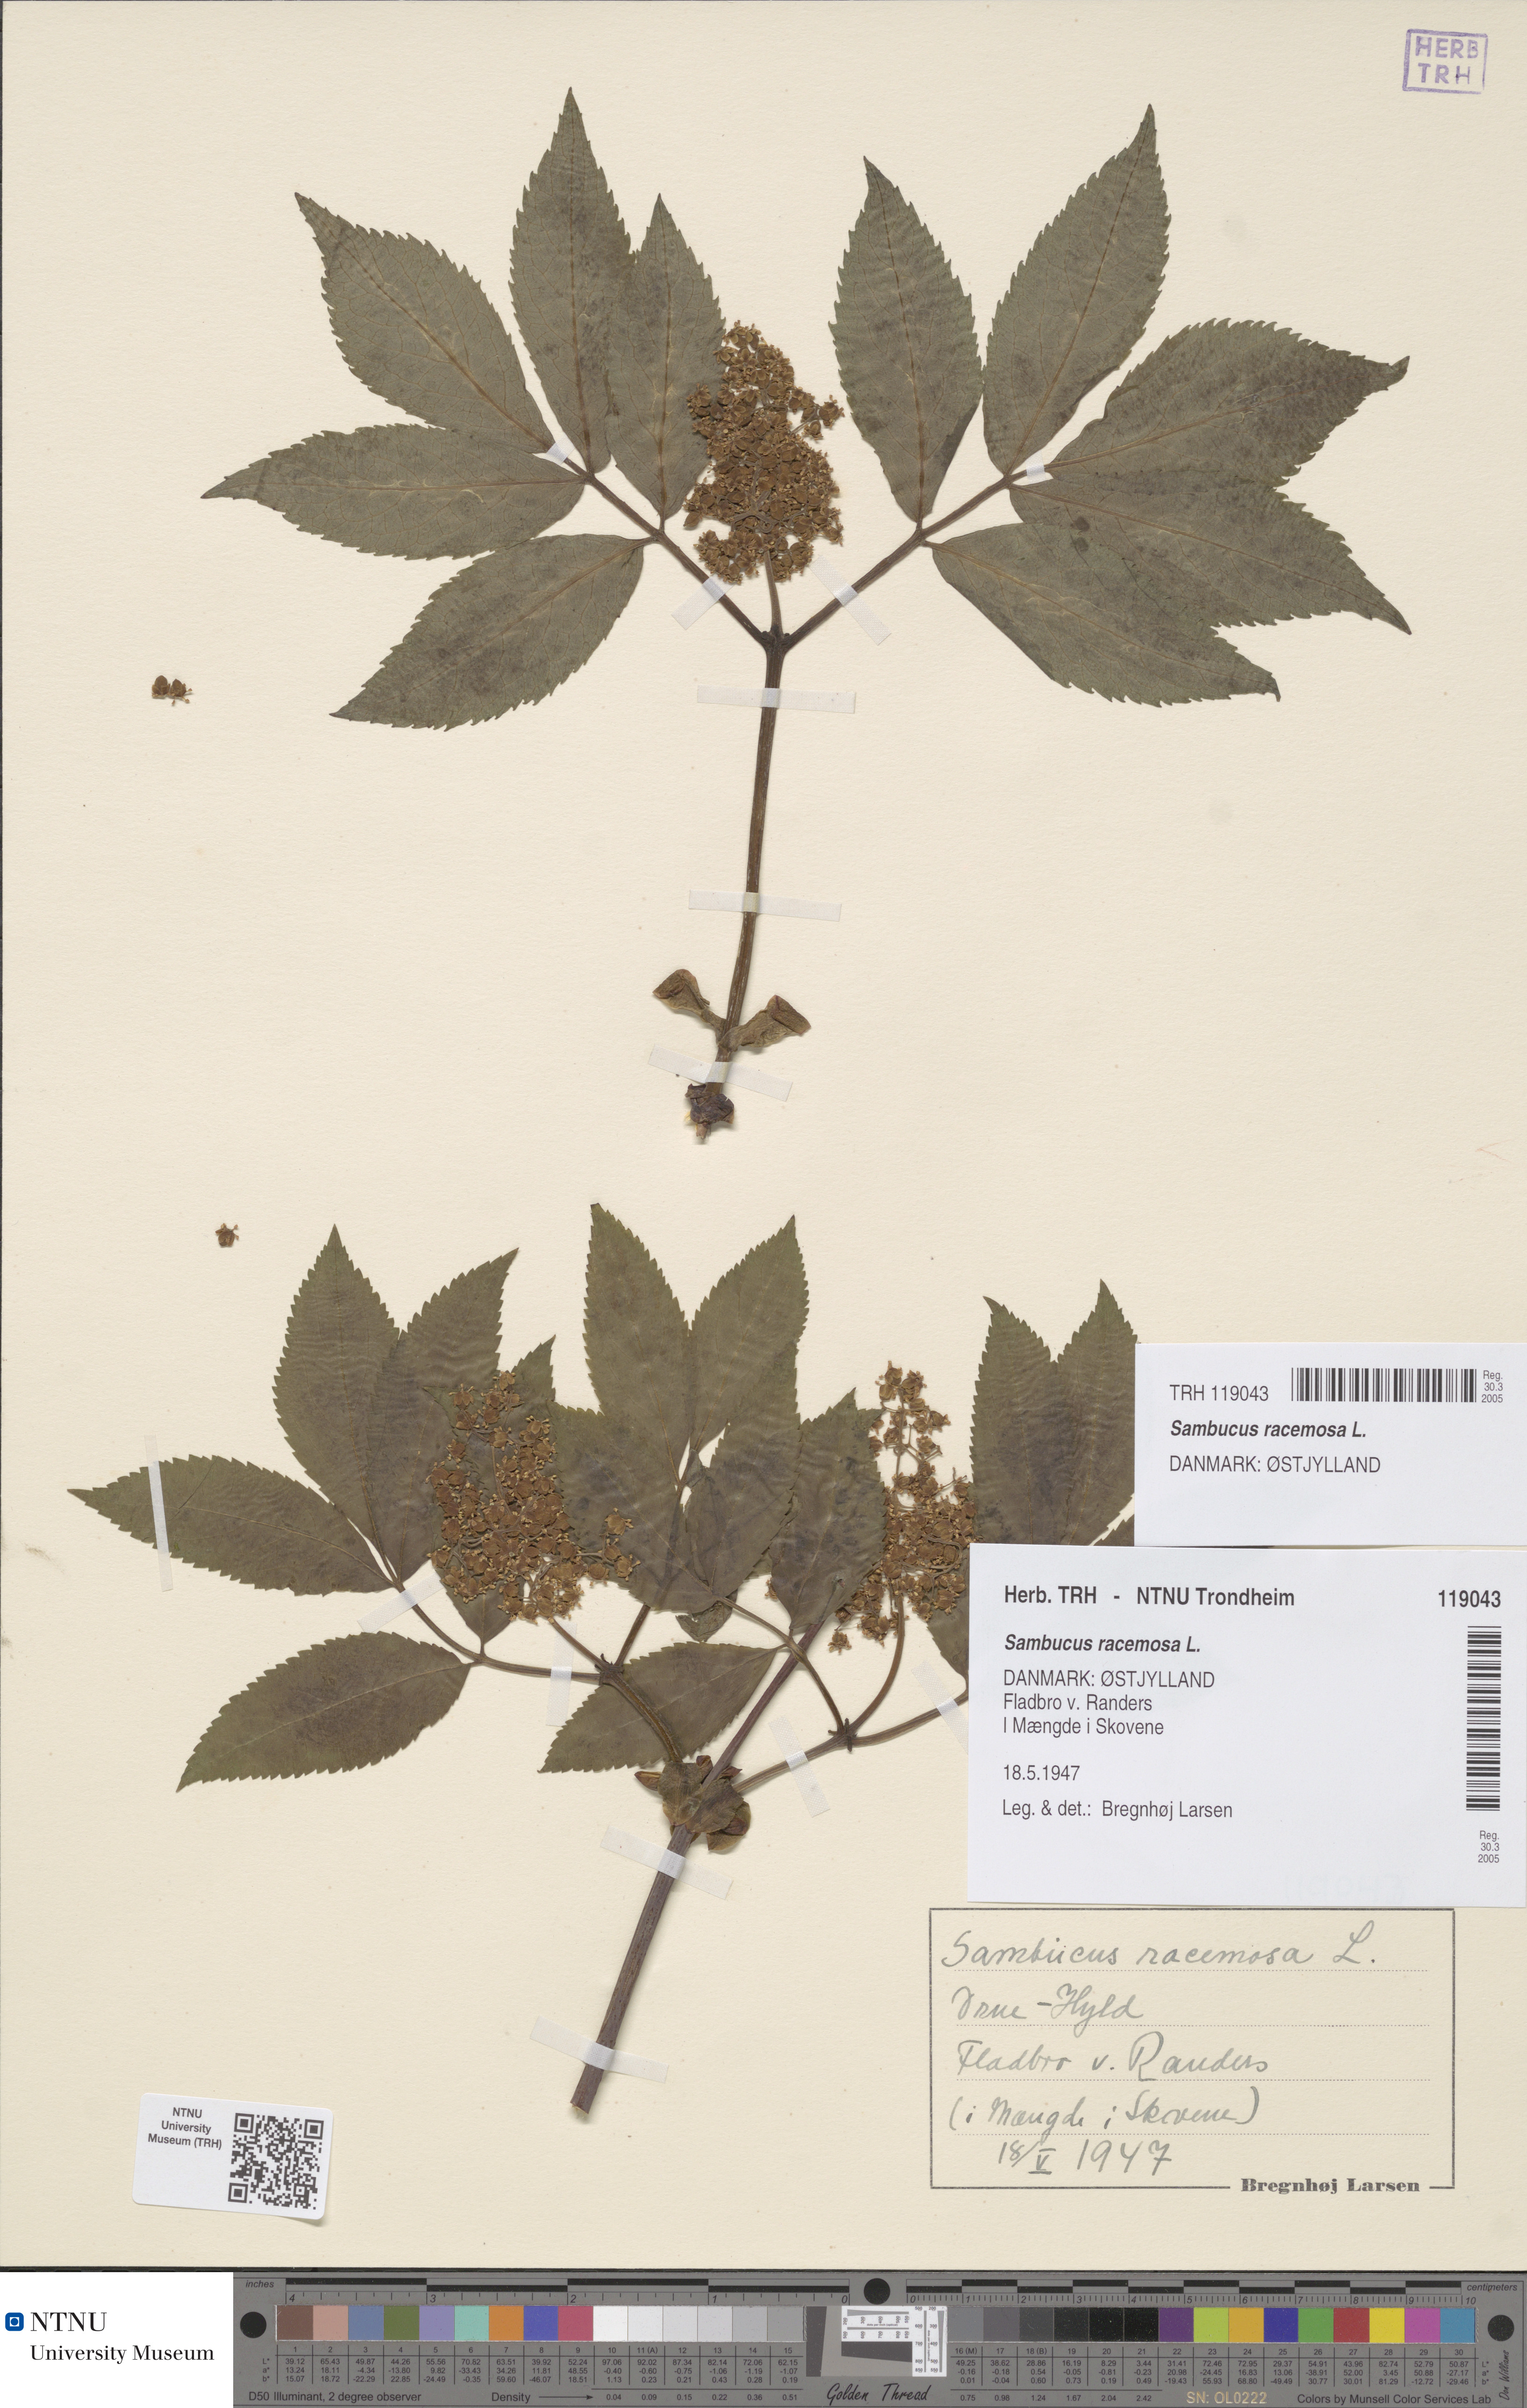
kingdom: Plantae
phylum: Tracheophyta
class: Magnoliopsida
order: Dipsacales
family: Viburnaceae
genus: Sambucus
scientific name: Sambucus racemosa
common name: Red-berried elder
